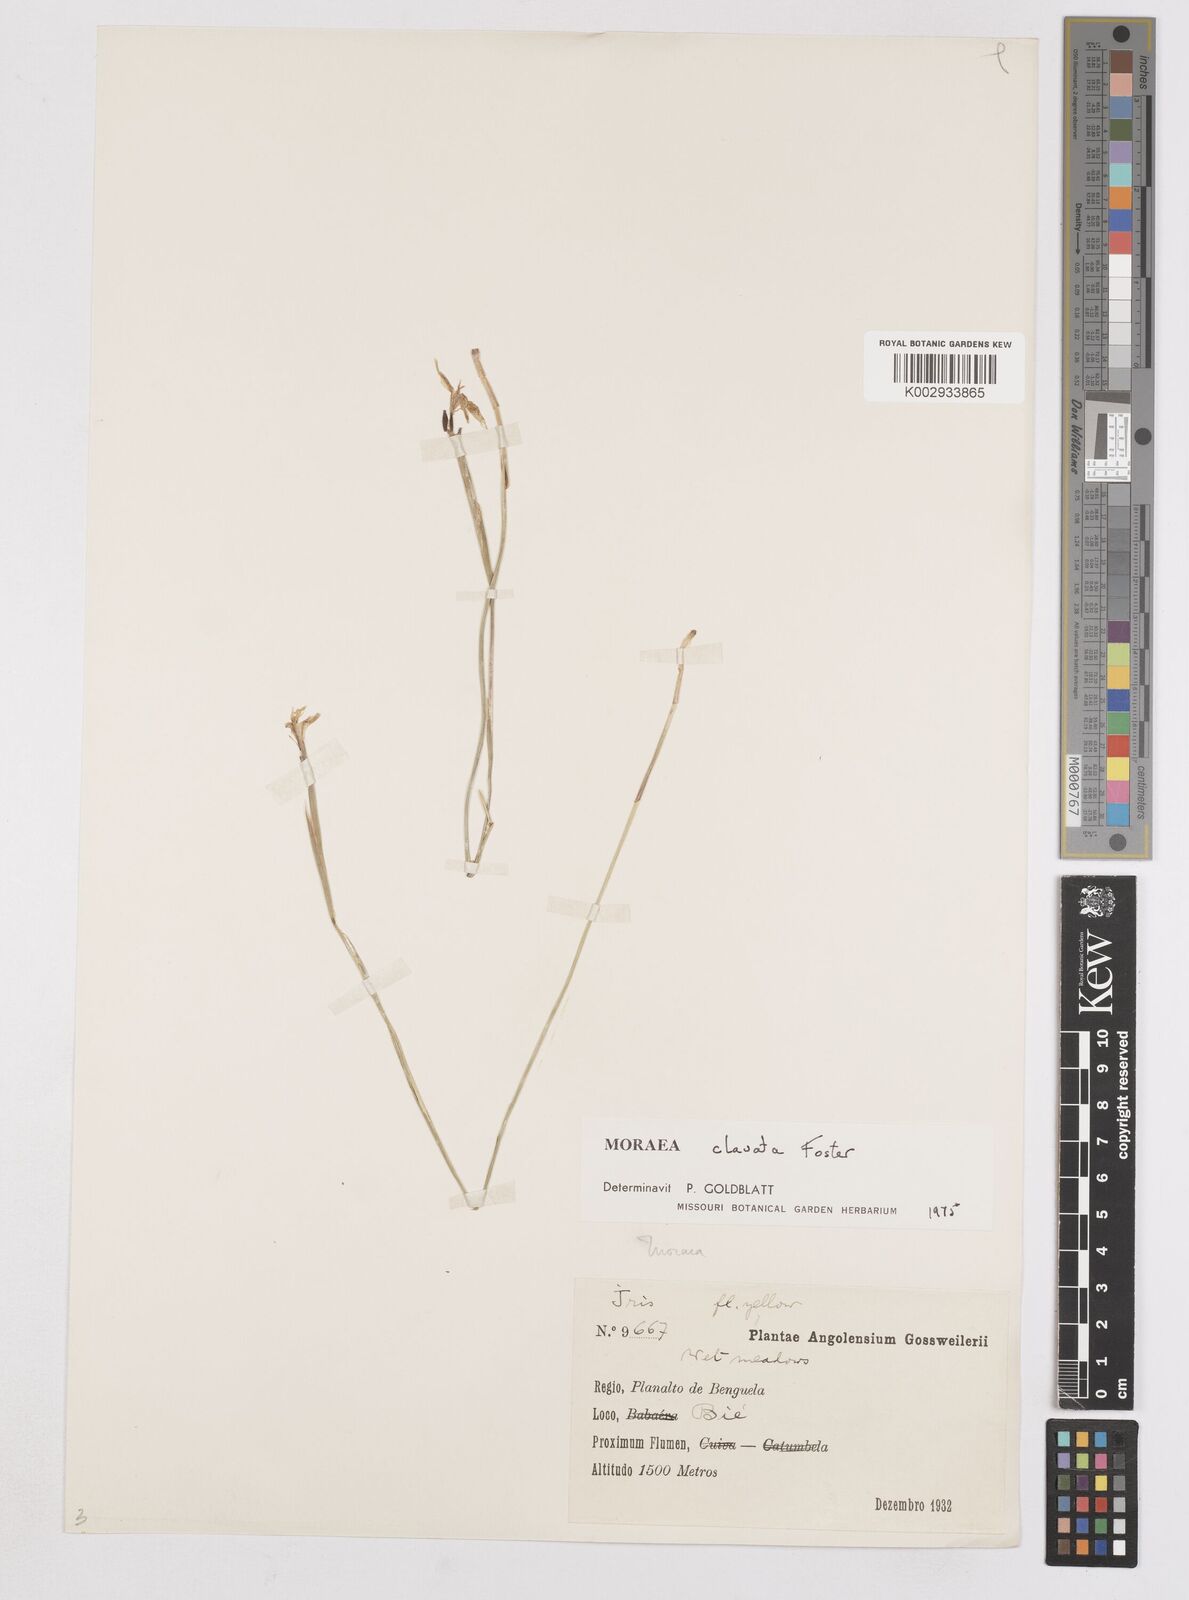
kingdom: Plantae
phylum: Tracheophyta
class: Liliopsida
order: Asparagales
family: Iridaceae
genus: Moraea
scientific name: Moraea clavata
